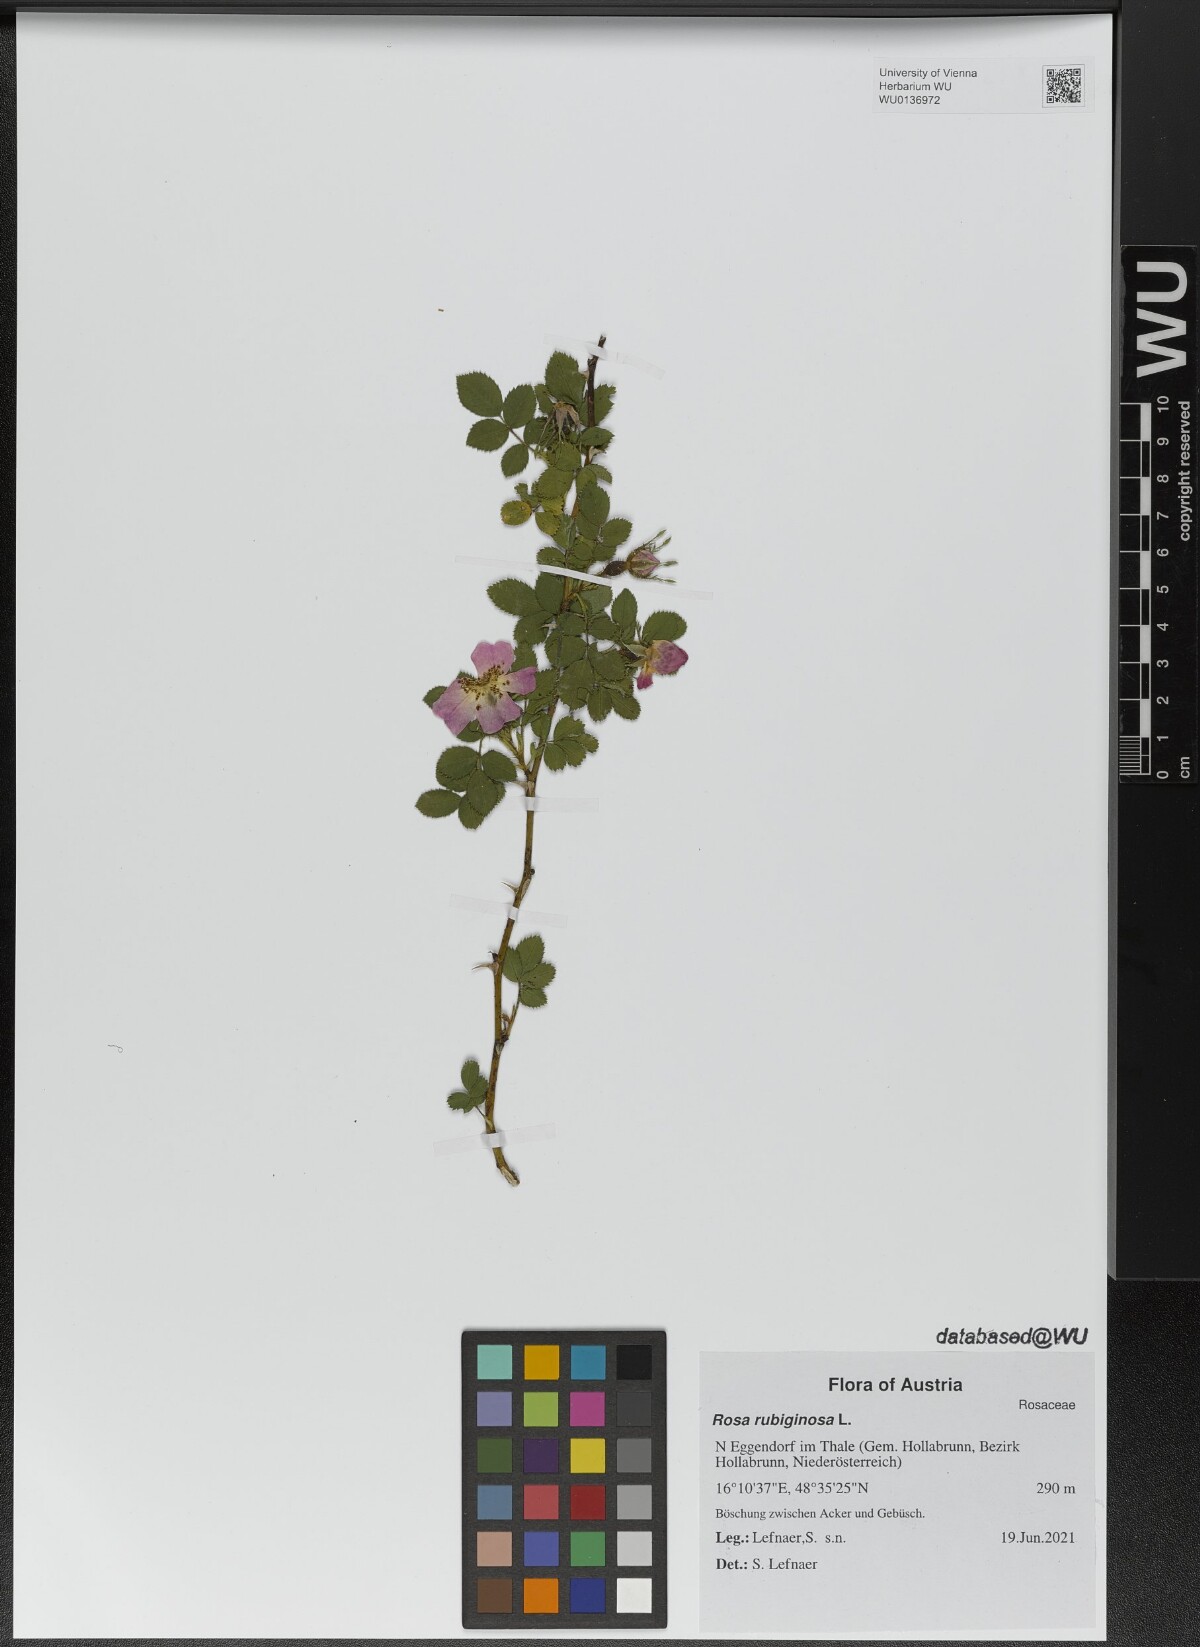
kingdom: Plantae
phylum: Tracheophyta
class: Magnoliopsida
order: Rosales
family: Rosaceae
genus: Rosa
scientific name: Rosa rubiginosa
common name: Sweet-briar
